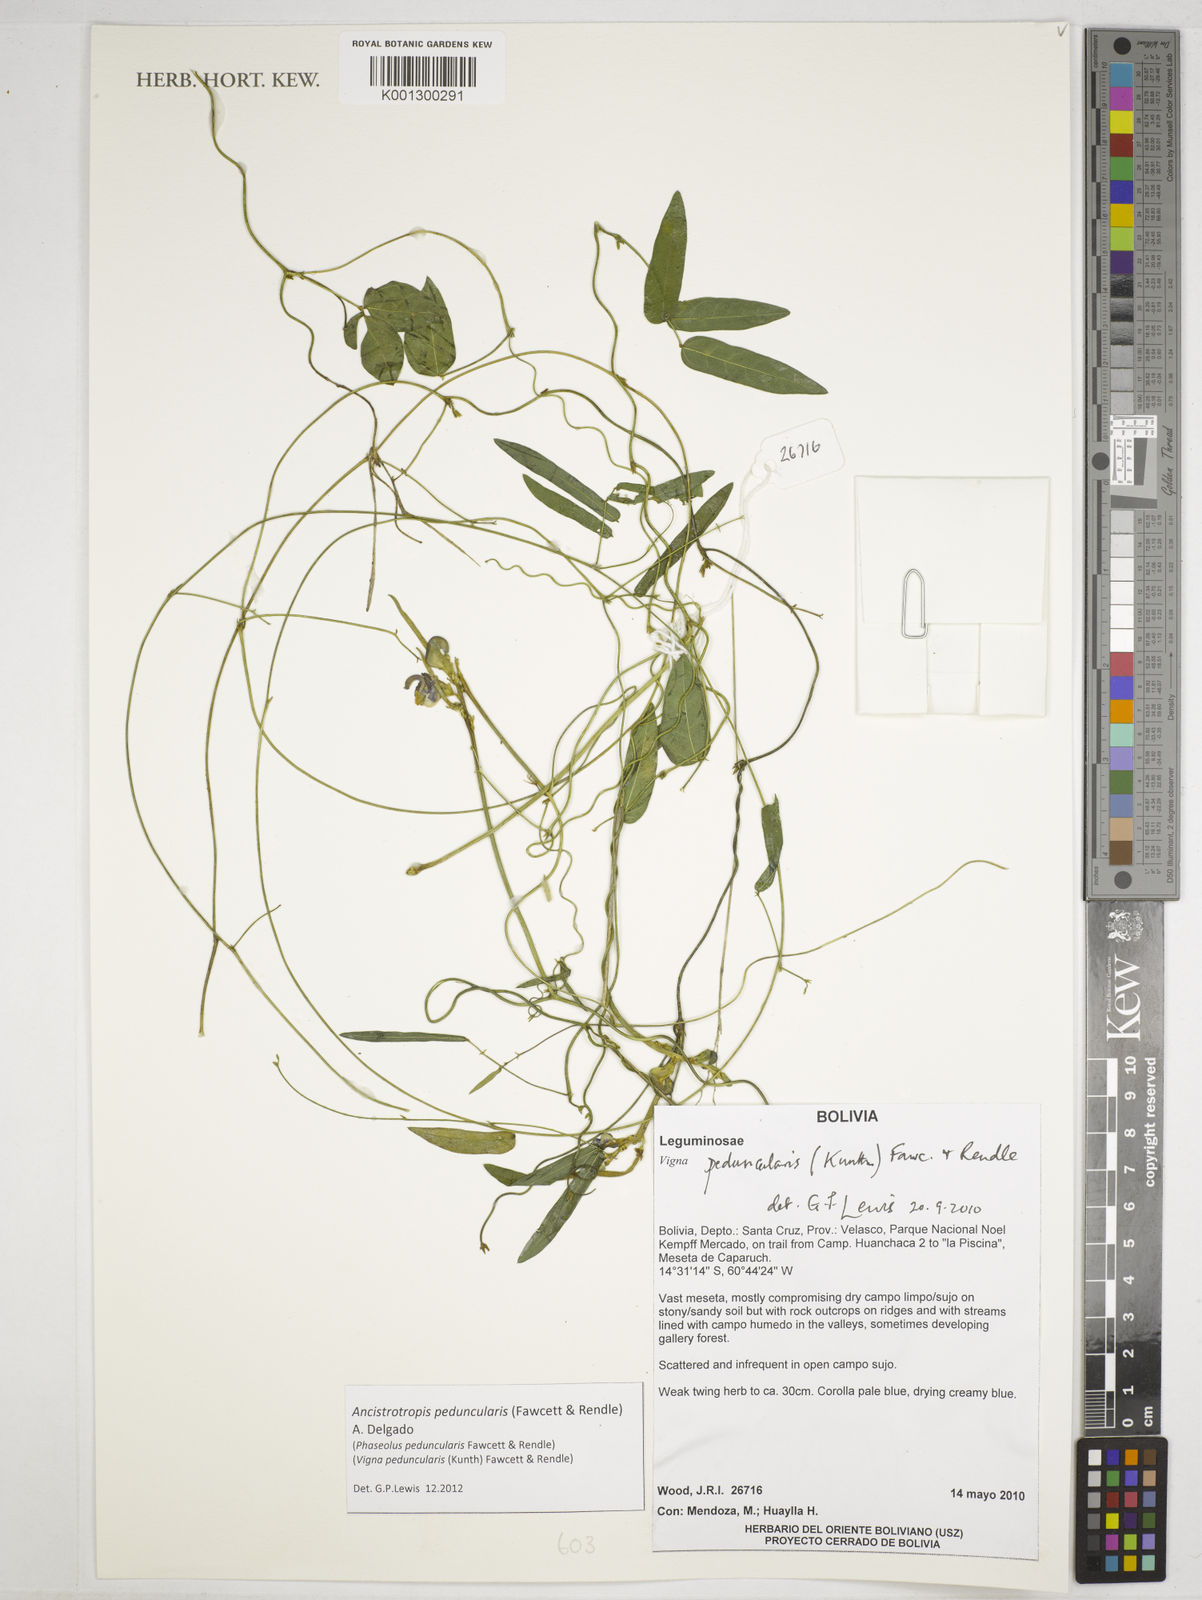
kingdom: Plantae
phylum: Tracheophyta
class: Magnoliopsida
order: Fabales
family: Fabaceae
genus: Ancistrotropis
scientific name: Ancistrotropis peduncularis
